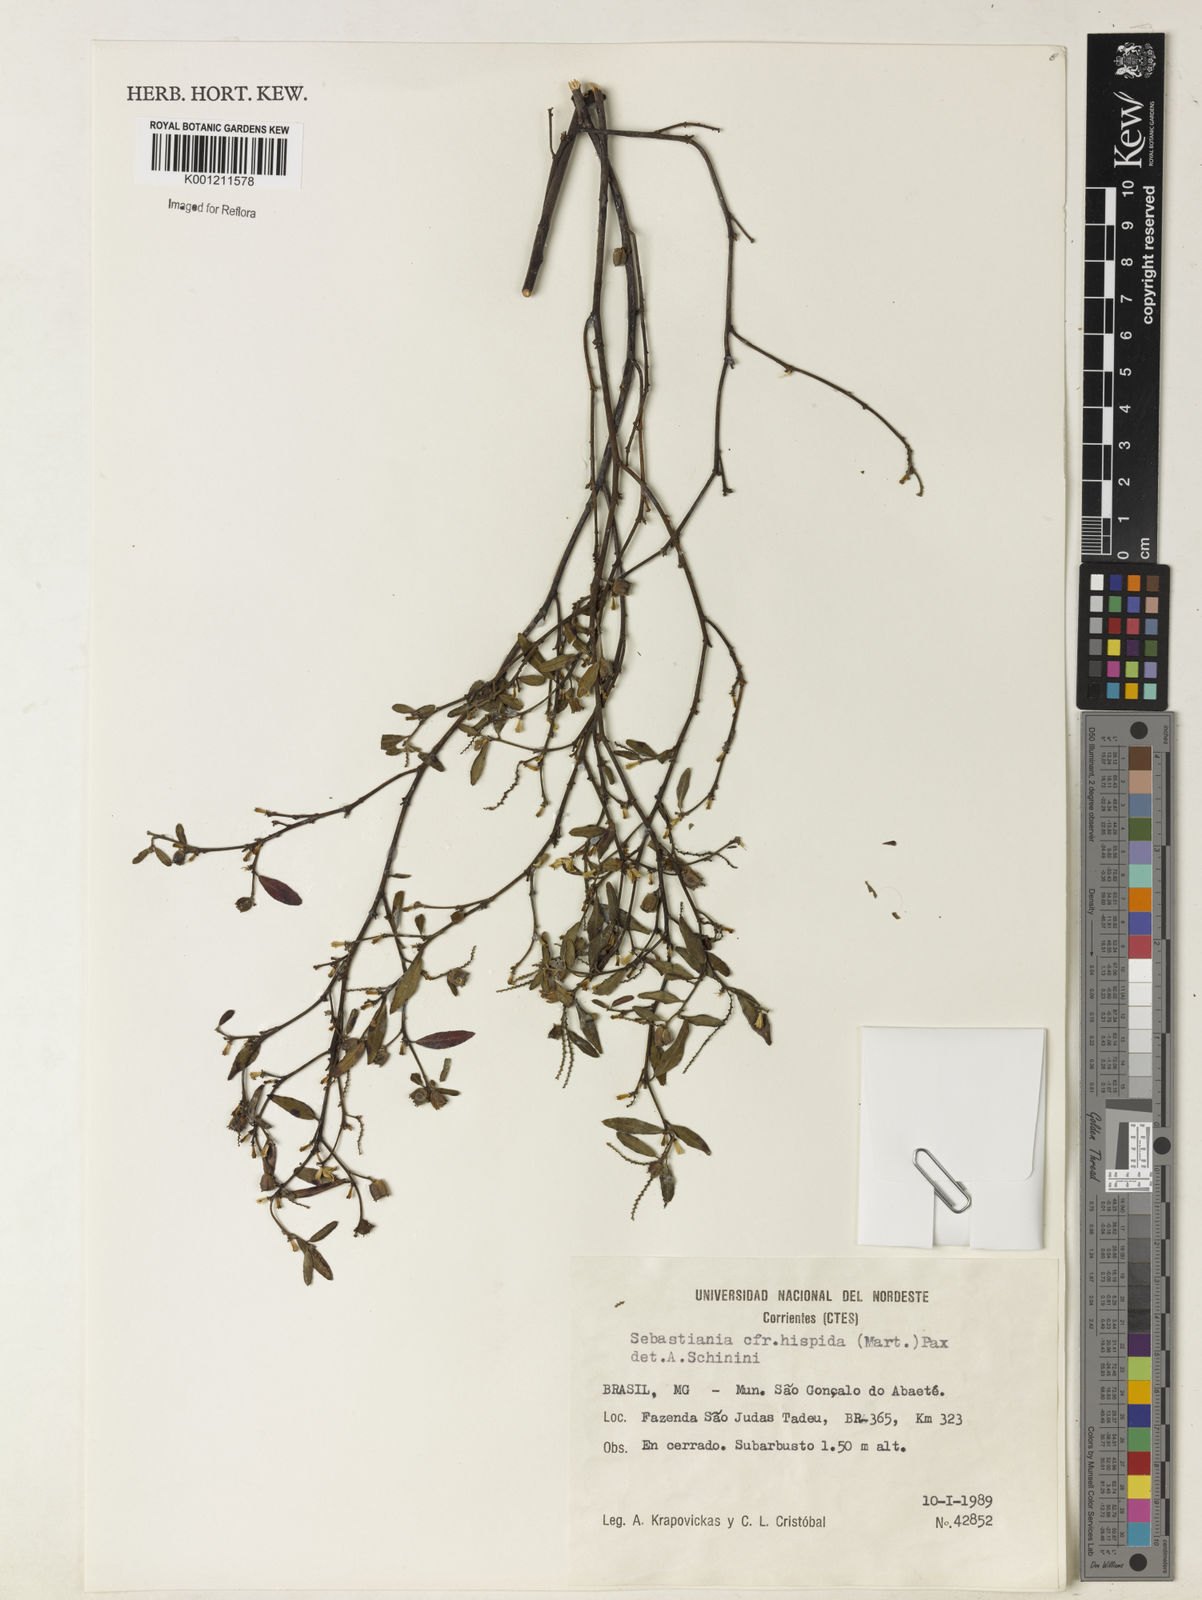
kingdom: Plantae
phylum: Tracheophyta
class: Magnoliopsida
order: Malpighiales
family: Euphorbiaceae
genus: Microstachys
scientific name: Microstachys hispida
